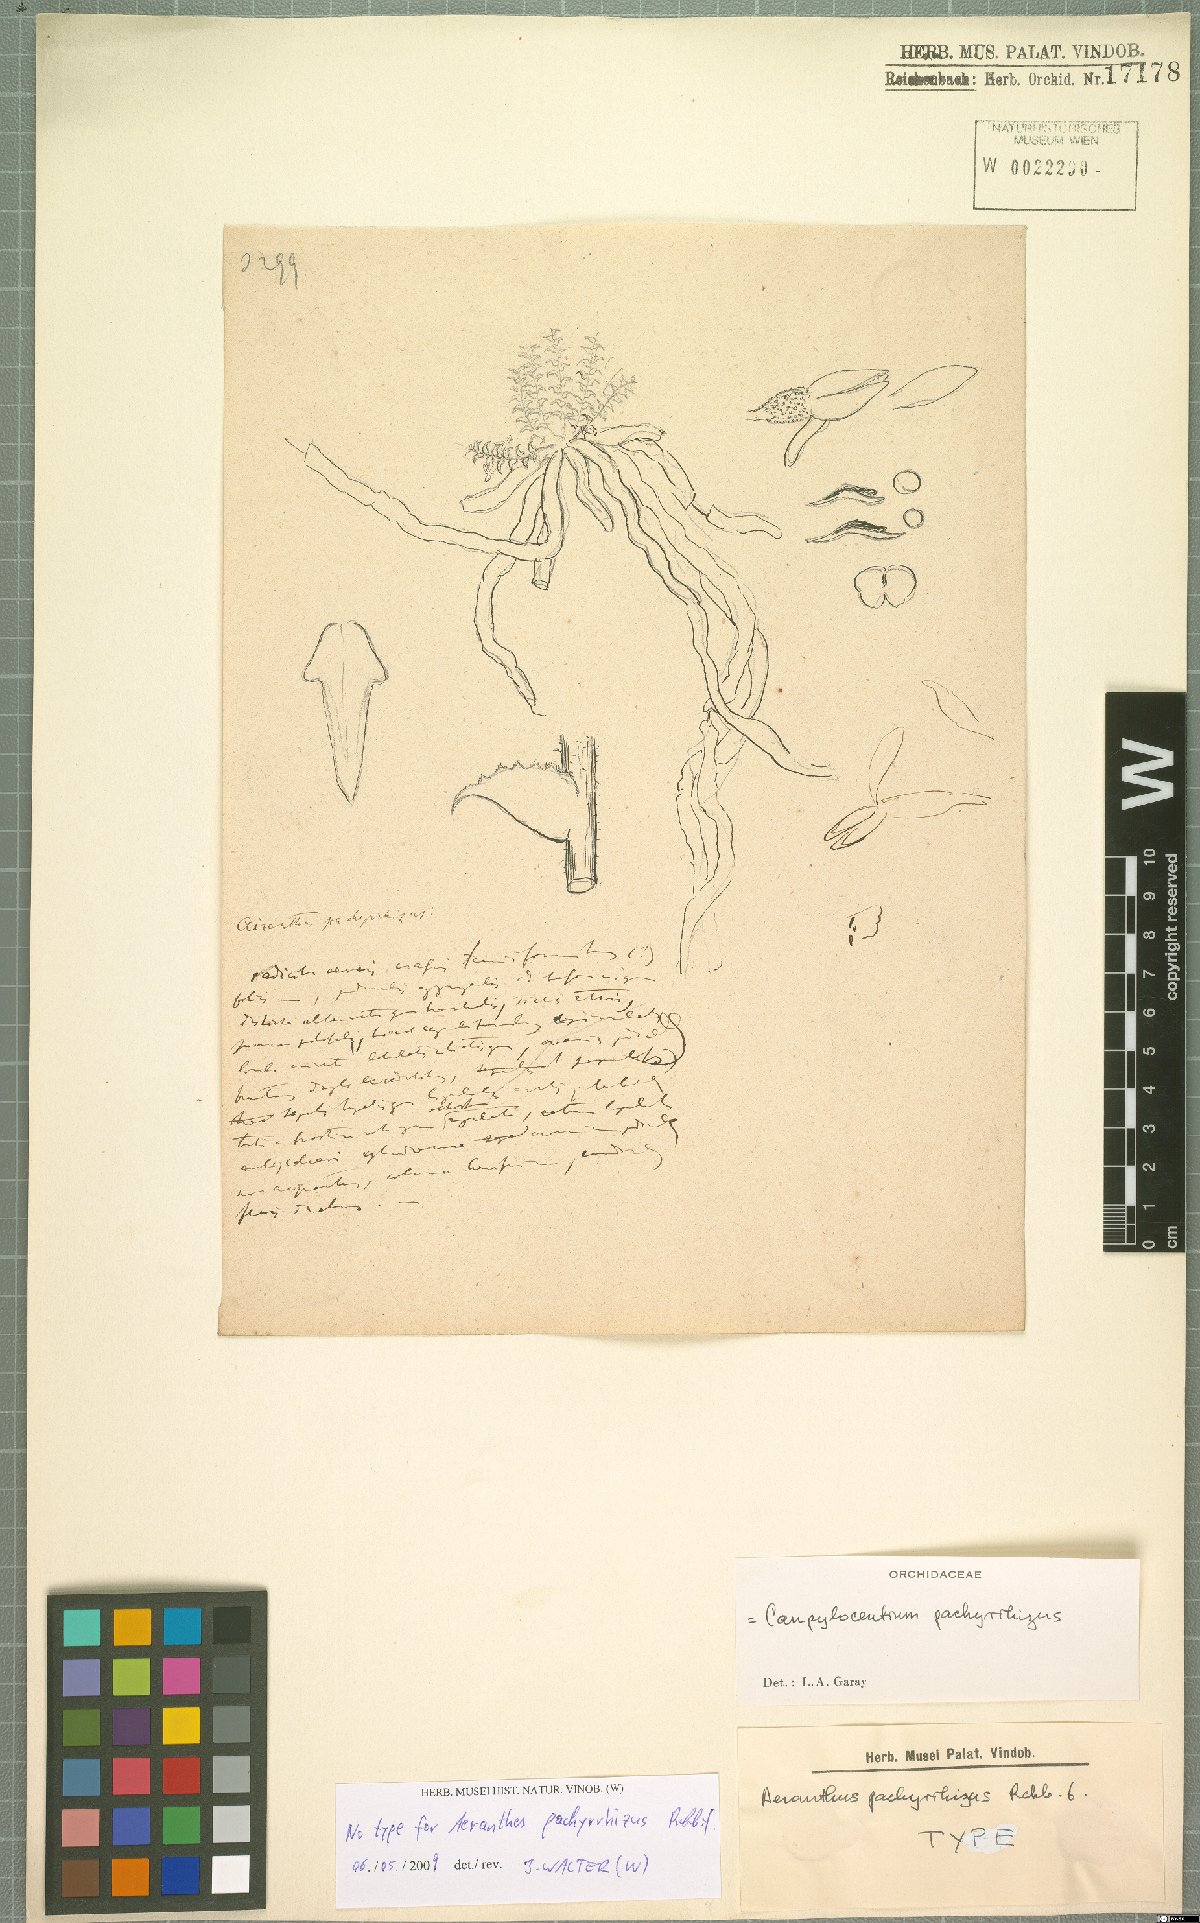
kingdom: Plantae
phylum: Tracheophyta
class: Liliopsida
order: Asparagales
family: Orchidaceae
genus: Campylocentrum
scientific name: Campylocentrum pachyrrhizum
